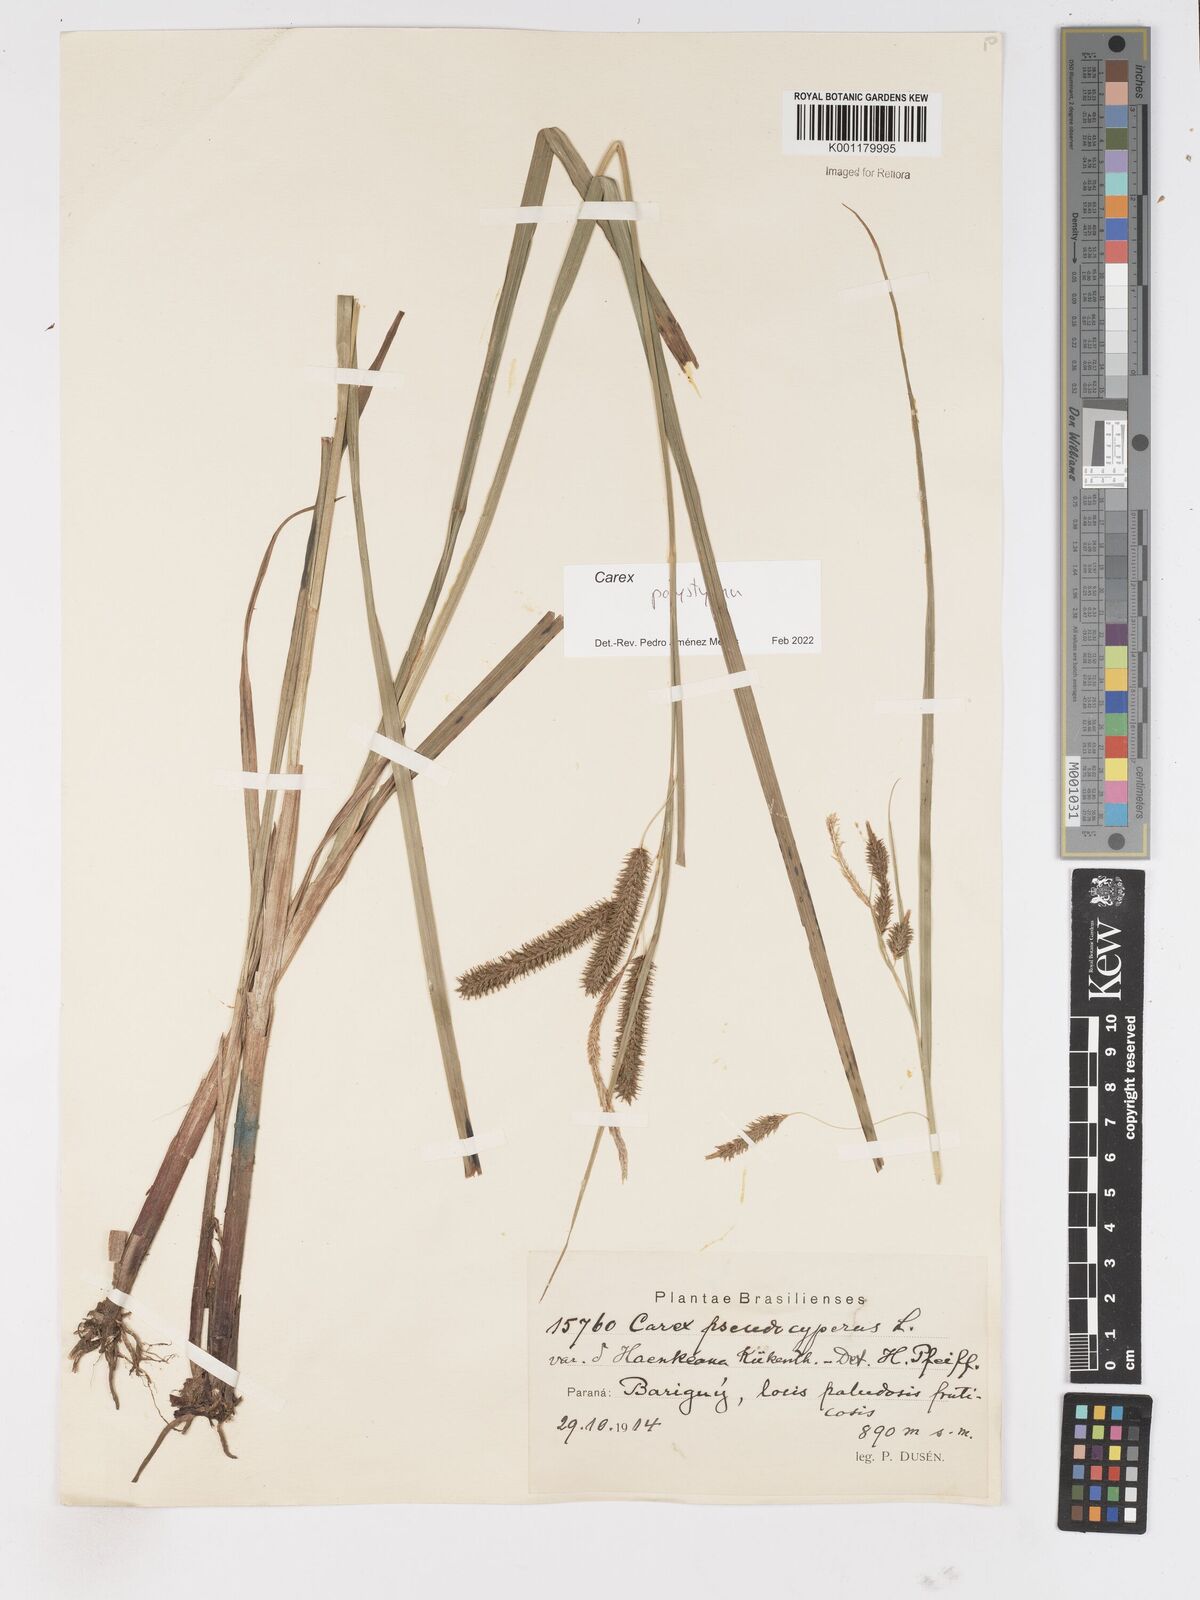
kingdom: Plantae
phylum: Tracheophyta
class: Liliopsida
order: Poales
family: Cyperaceae
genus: Carex
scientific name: Carex polysticha
